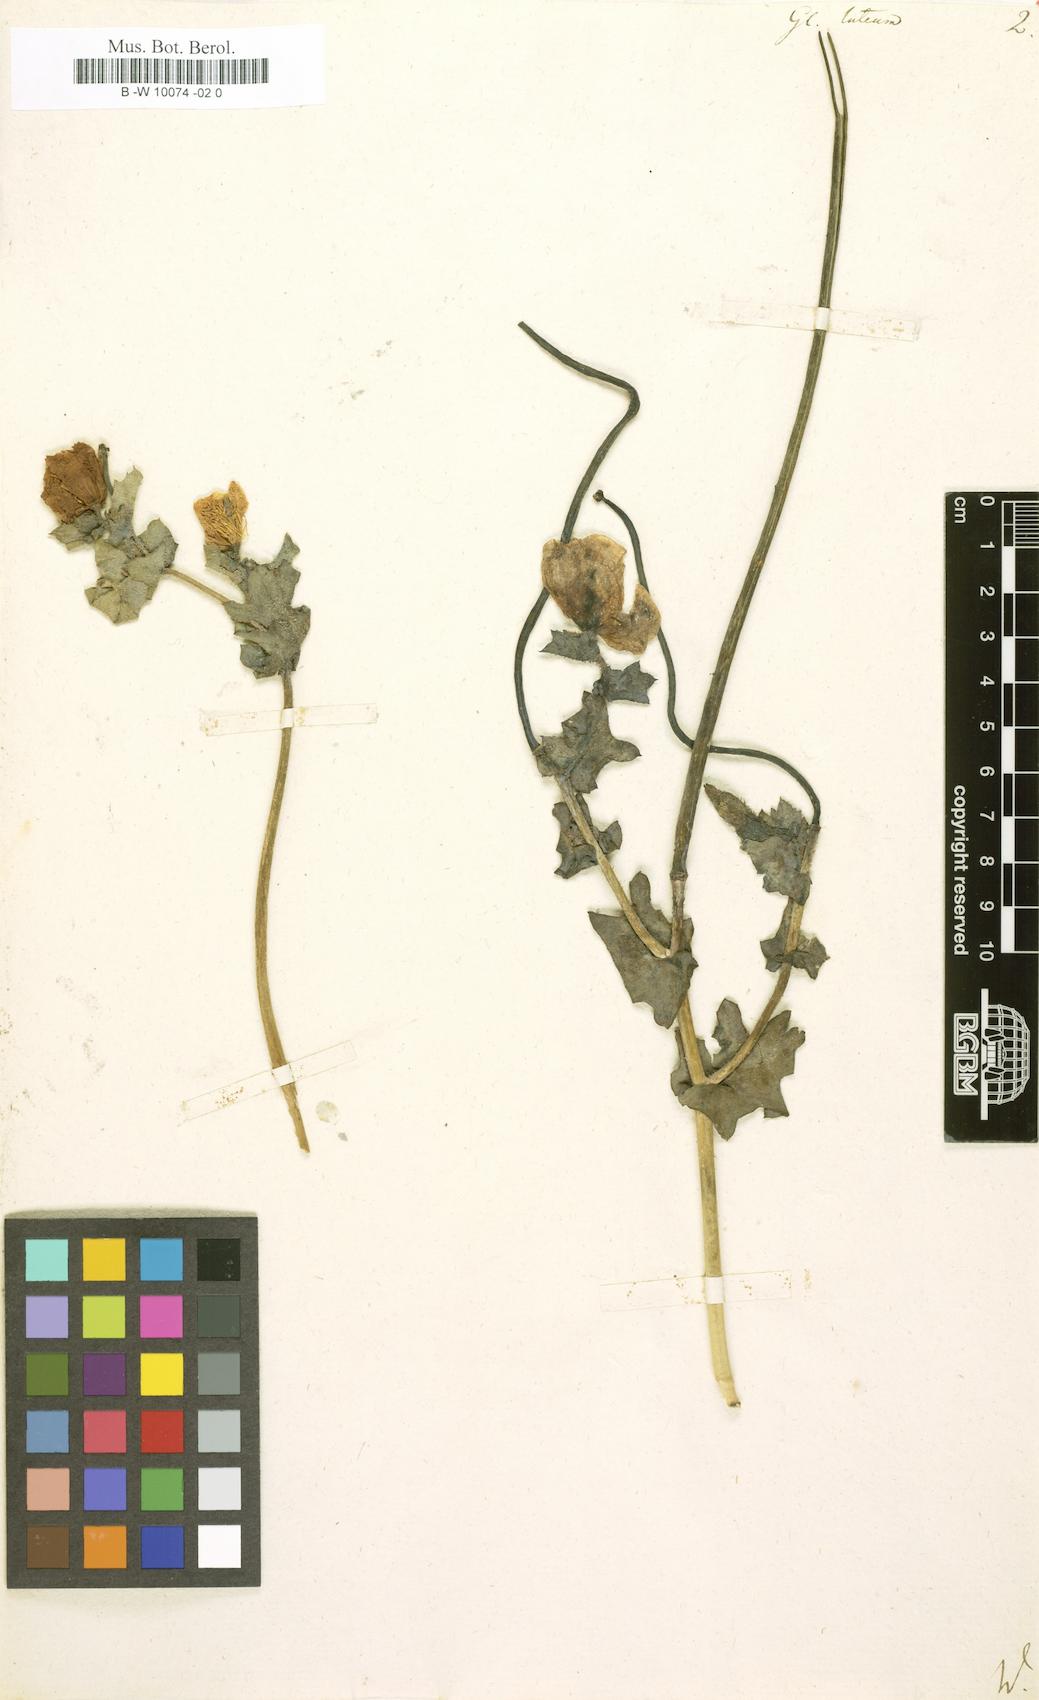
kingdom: Plantae
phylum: Tracheophyta
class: Magnoliopsida
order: Ranunculales
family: Papaveraceae
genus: Glaucium
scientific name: Glaucium flavum
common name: Yellow horned-poppy
